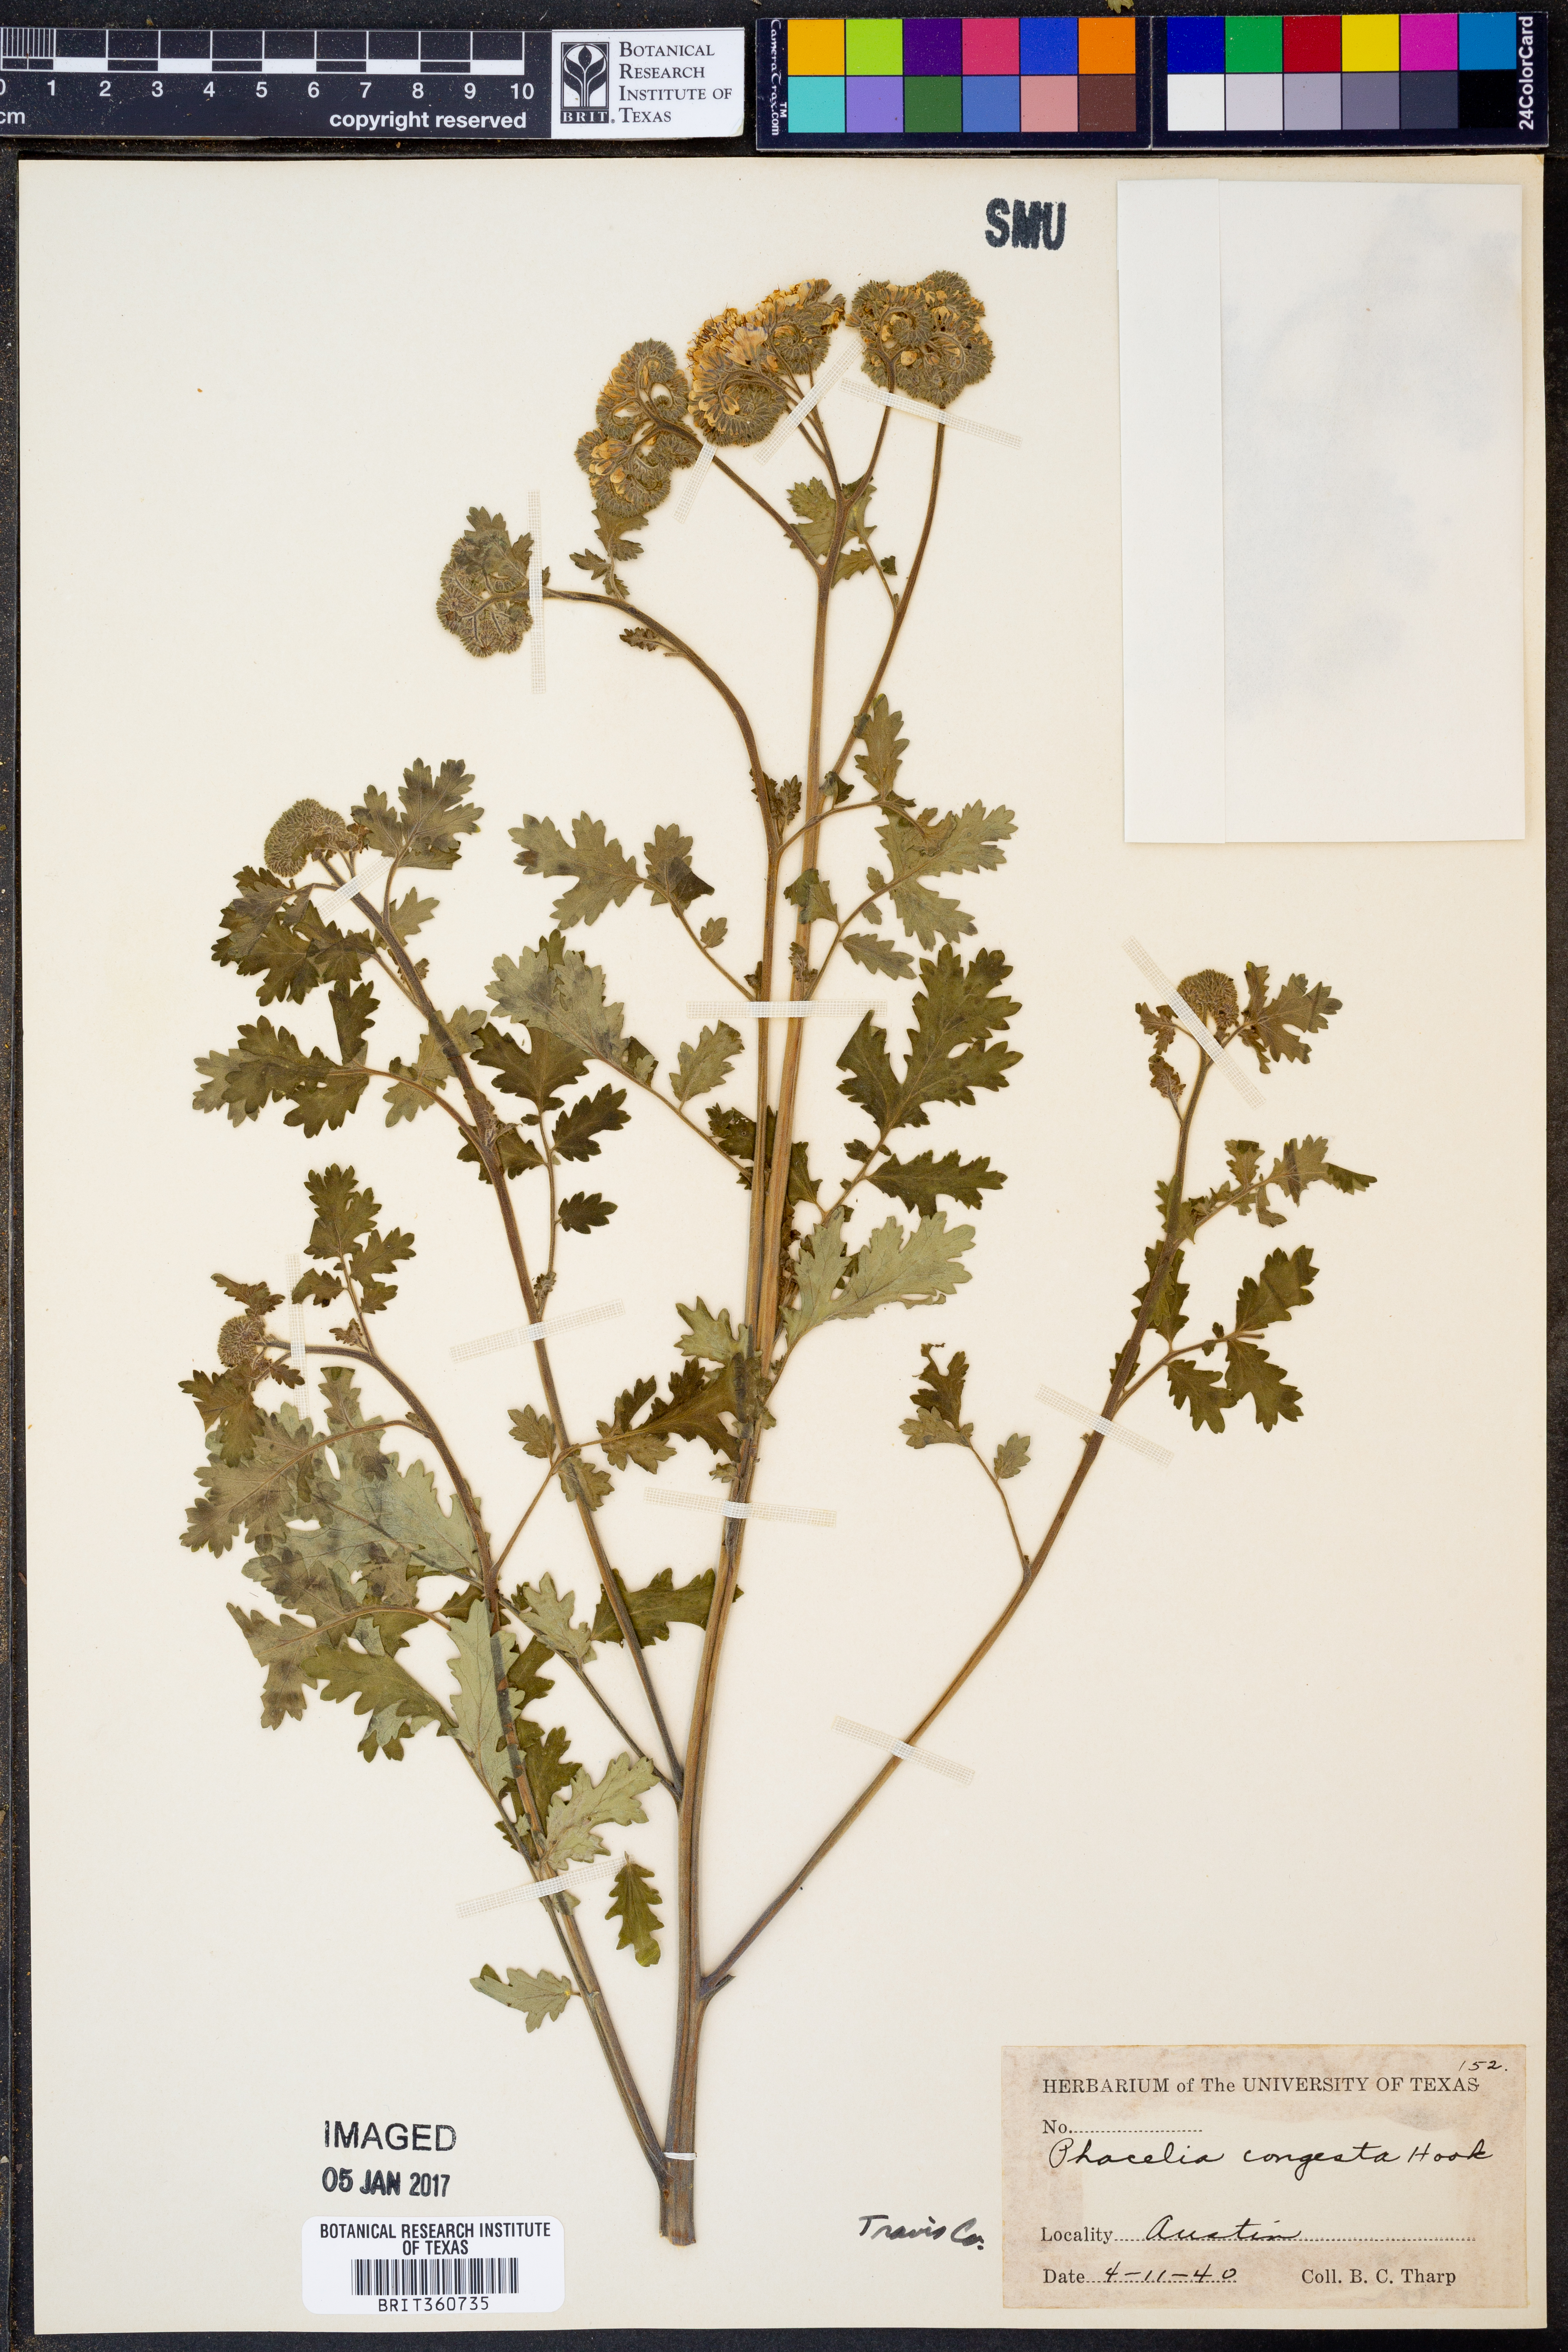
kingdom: Plantae
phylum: Tracheophyta
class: Magnoliopsida
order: Boraginales
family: Hydrophyllaceae
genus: Phacelia
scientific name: Phacelia congesta
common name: Blue curls
